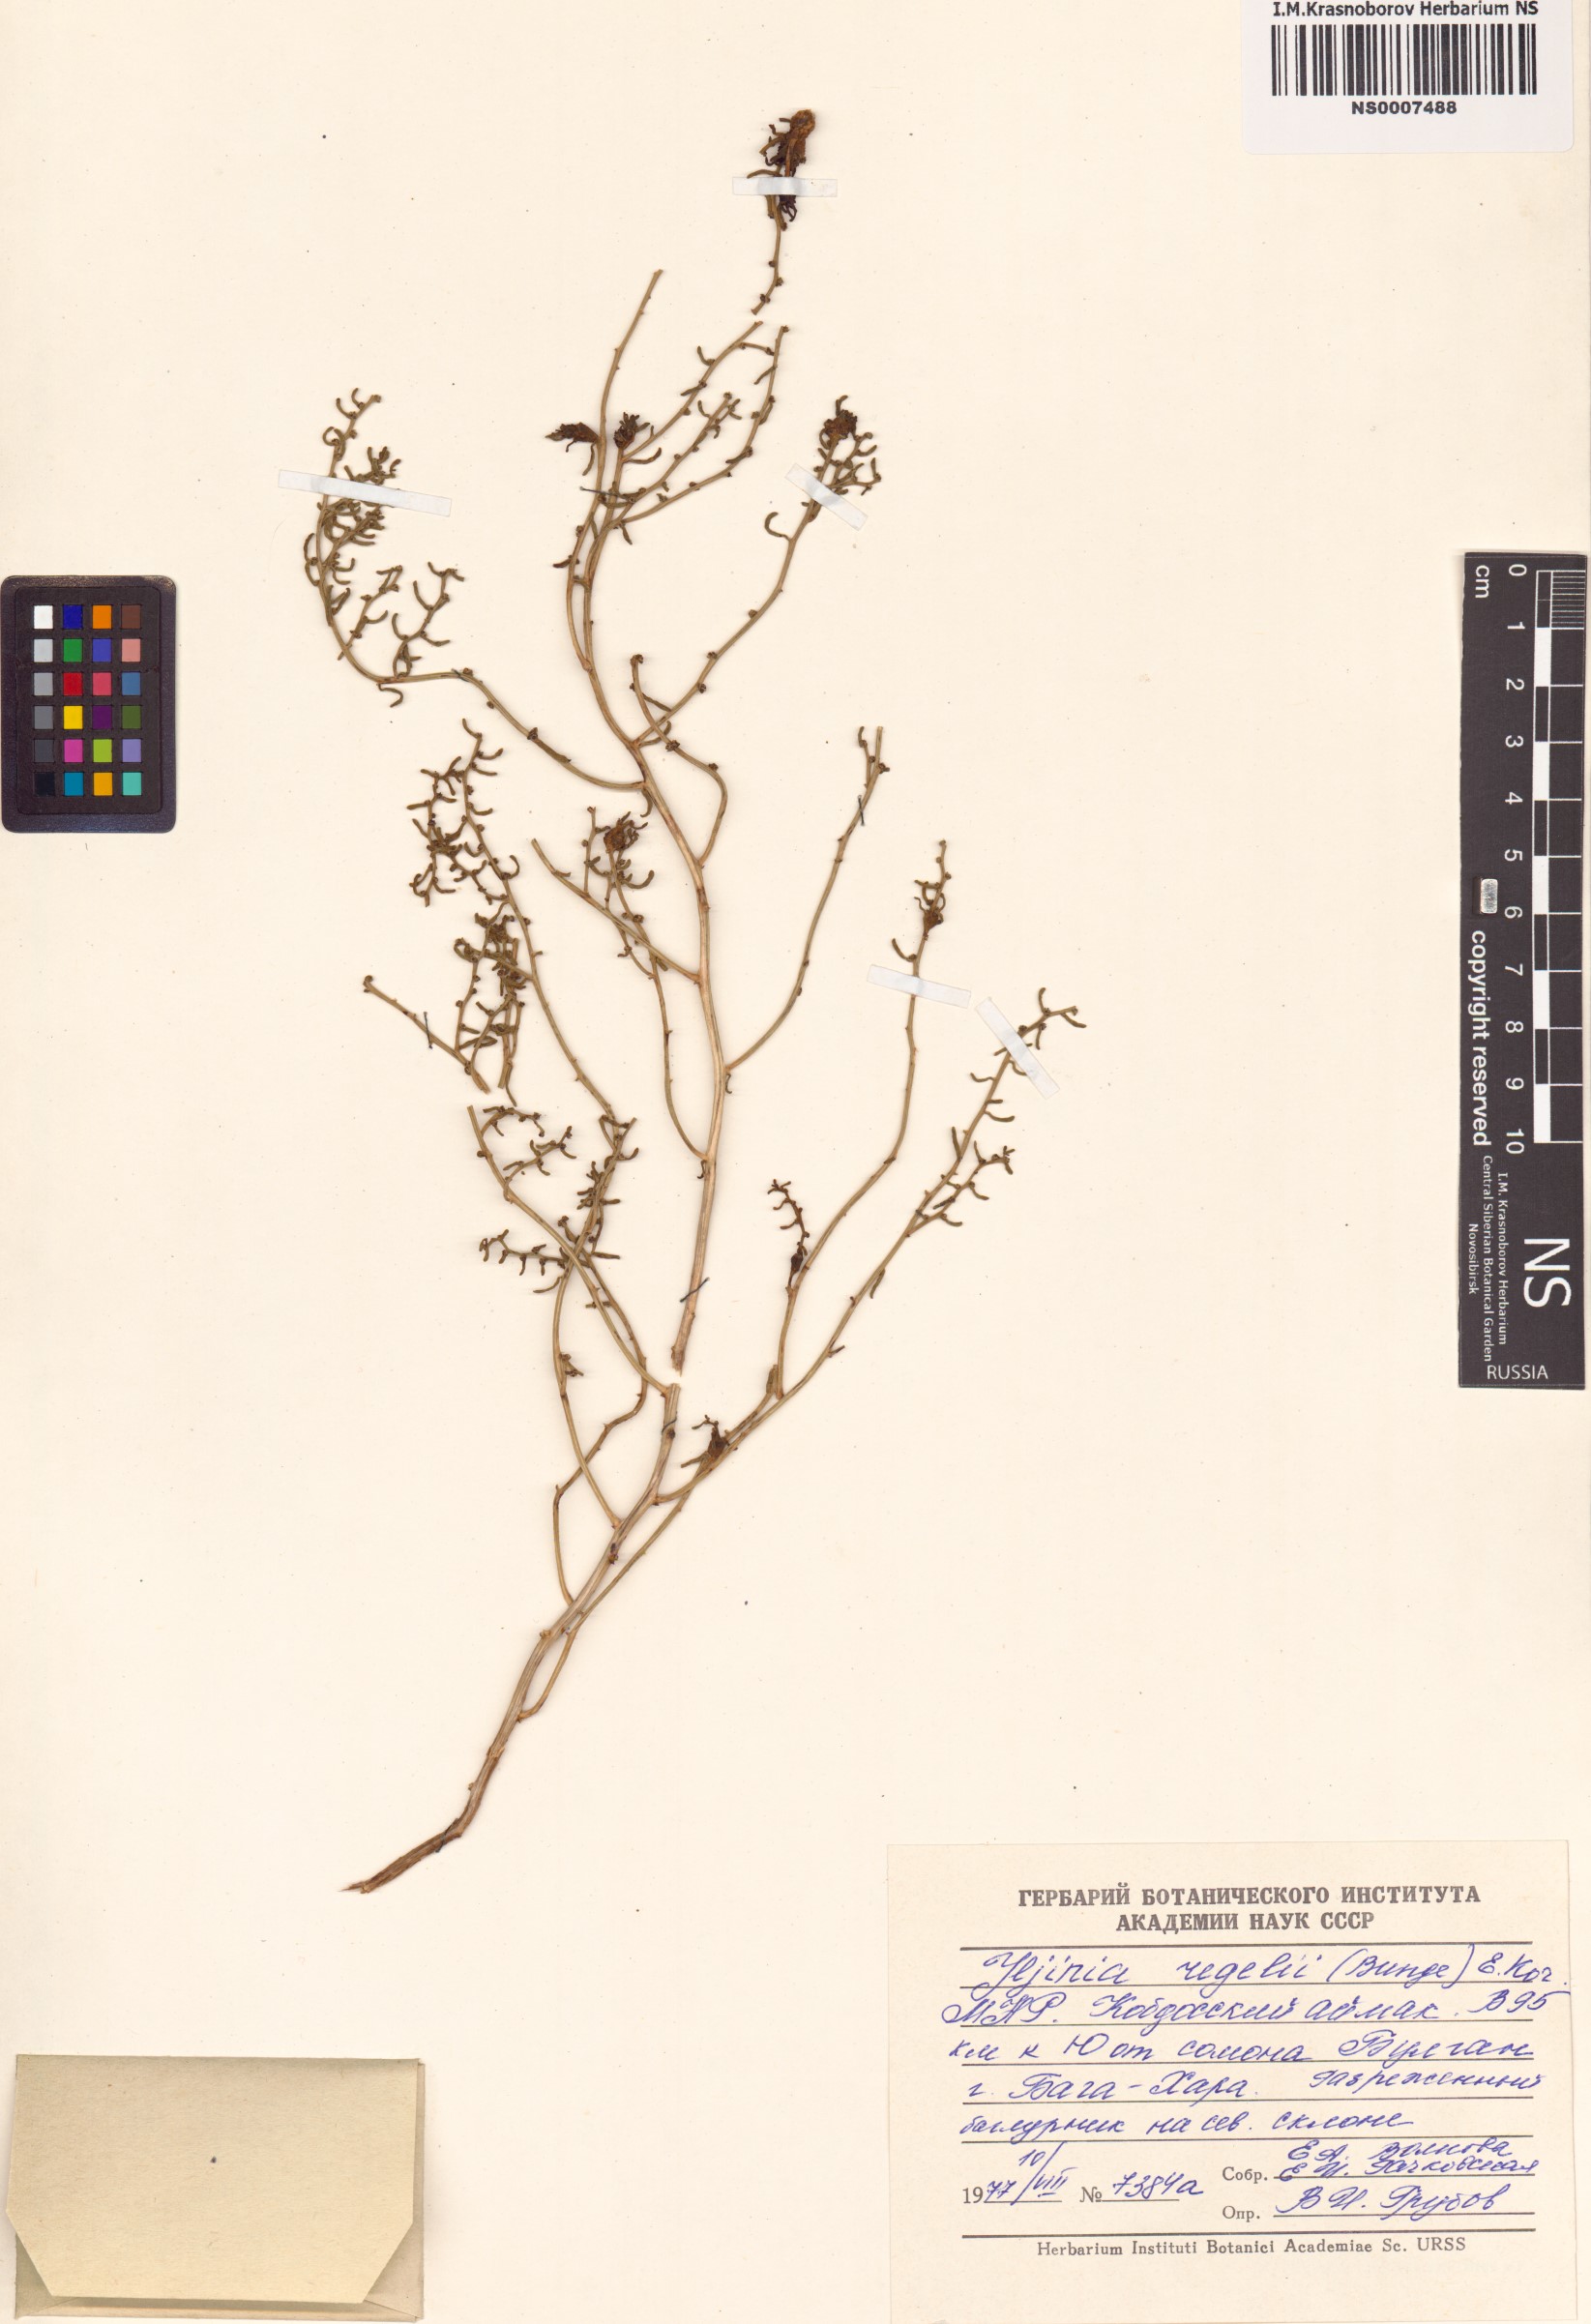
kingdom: Plantae
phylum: Tracheophyta
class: Magnoliopsida
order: Caryophyllales
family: Amaranthaceae
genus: Haloxylon
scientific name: Haloxylon regelii
